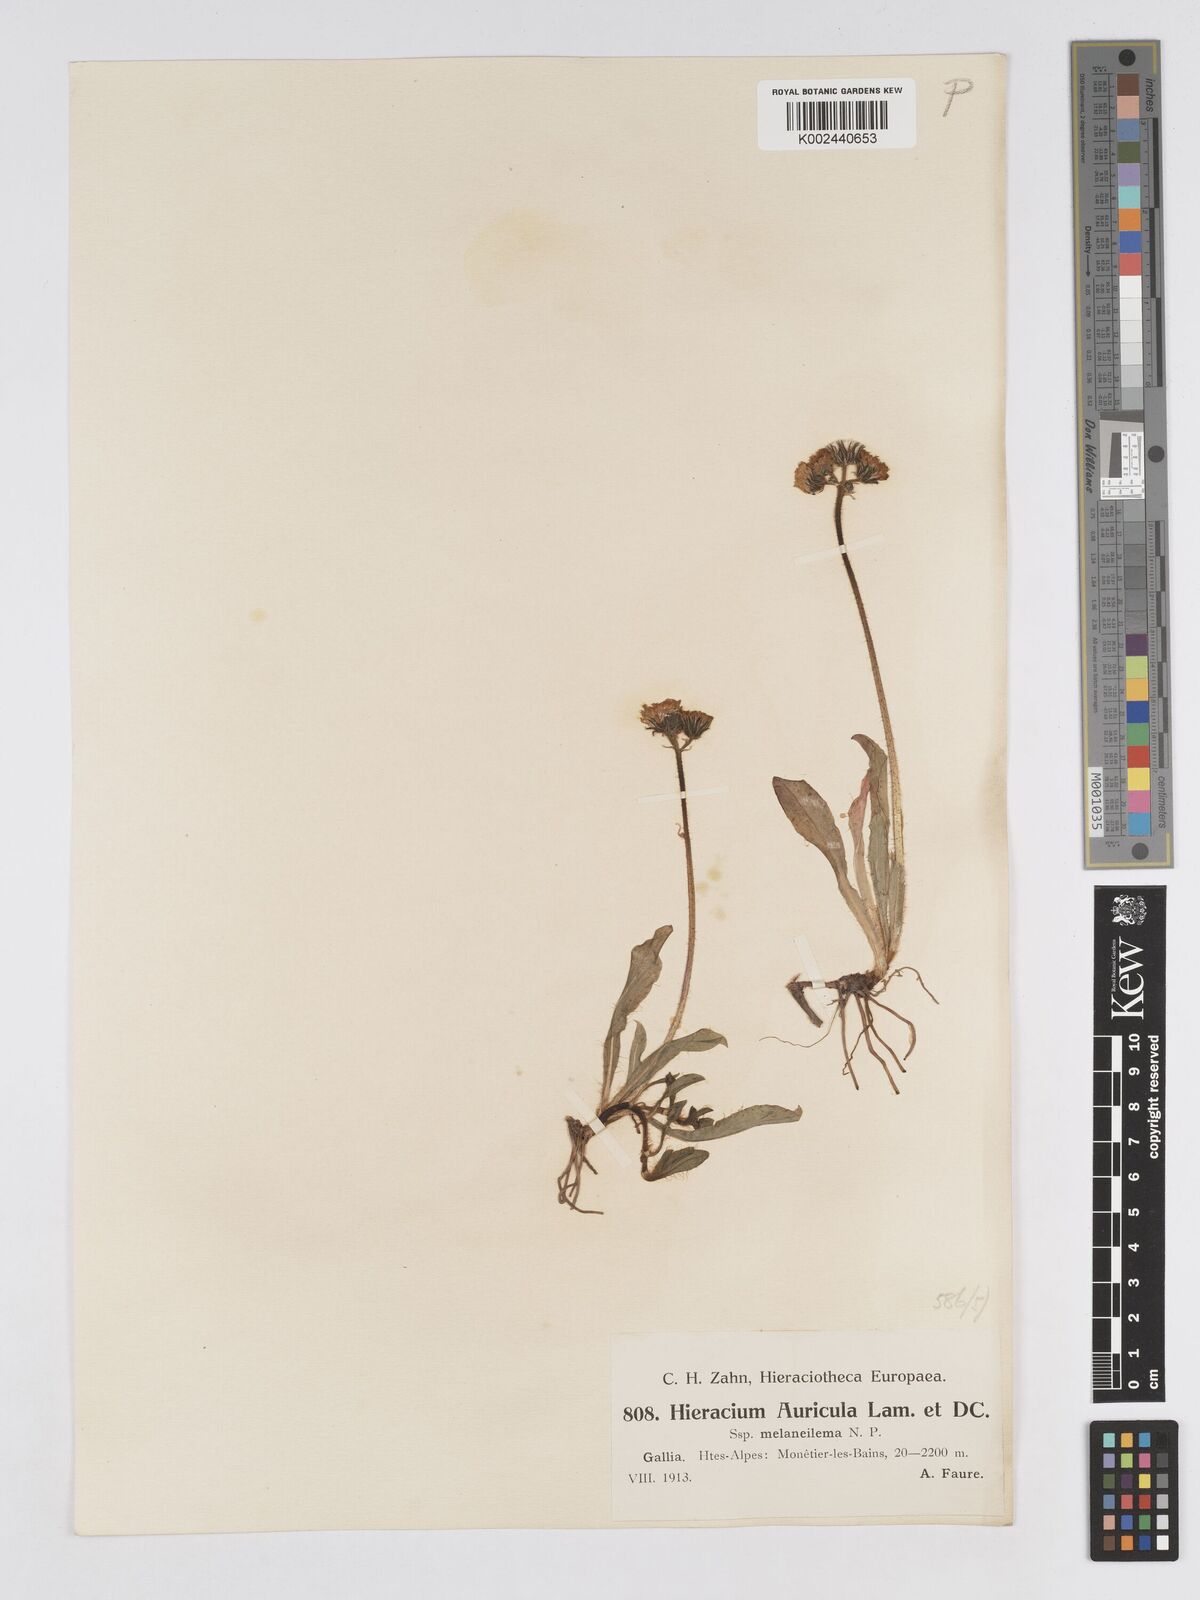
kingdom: Plantae
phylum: Tracheophyta
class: Magnoliopsida
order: Asterales
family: Asteraceae
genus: Pilosella
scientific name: Pilosella lactucella
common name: Glaucous fox-and-cubs
